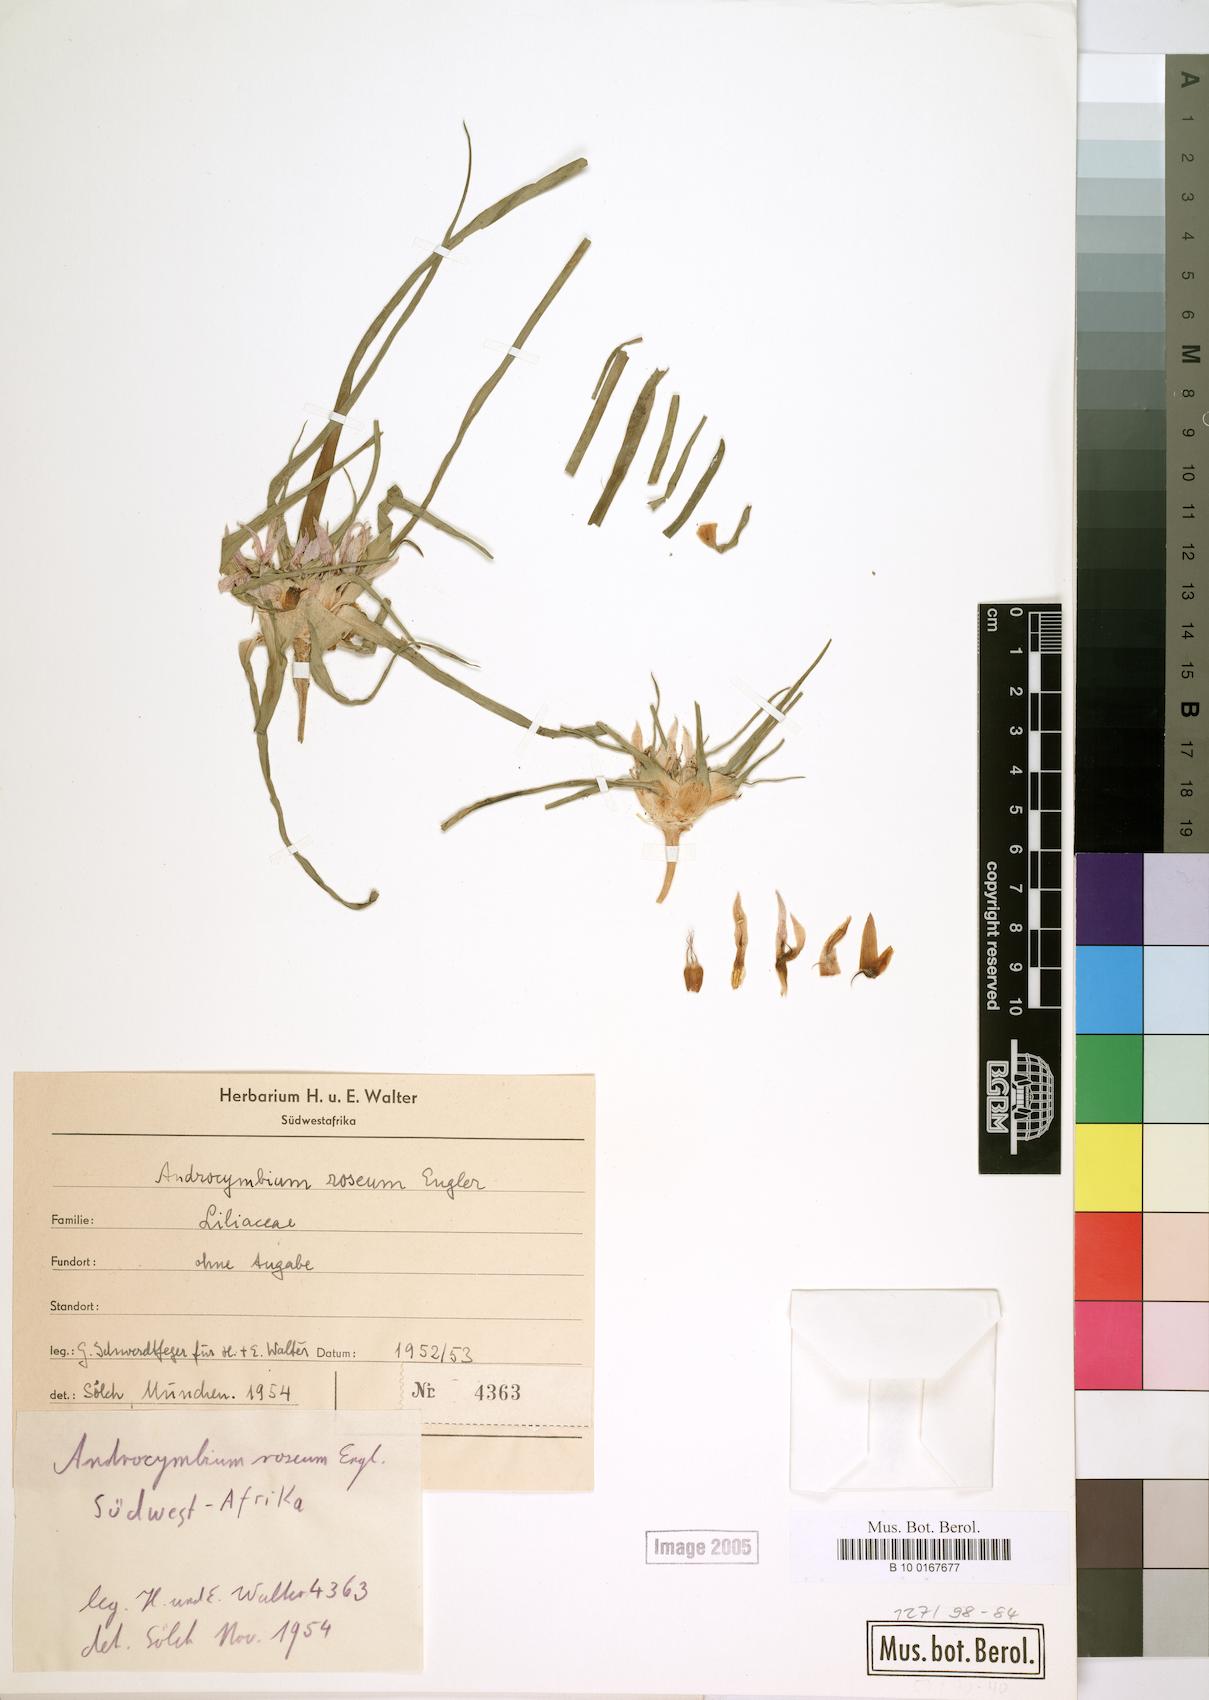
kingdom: Plantae
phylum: Tracheophyta
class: Liliopsida
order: Liliales
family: Colchicaceae
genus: Colchicum
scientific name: Colchicum roseum
